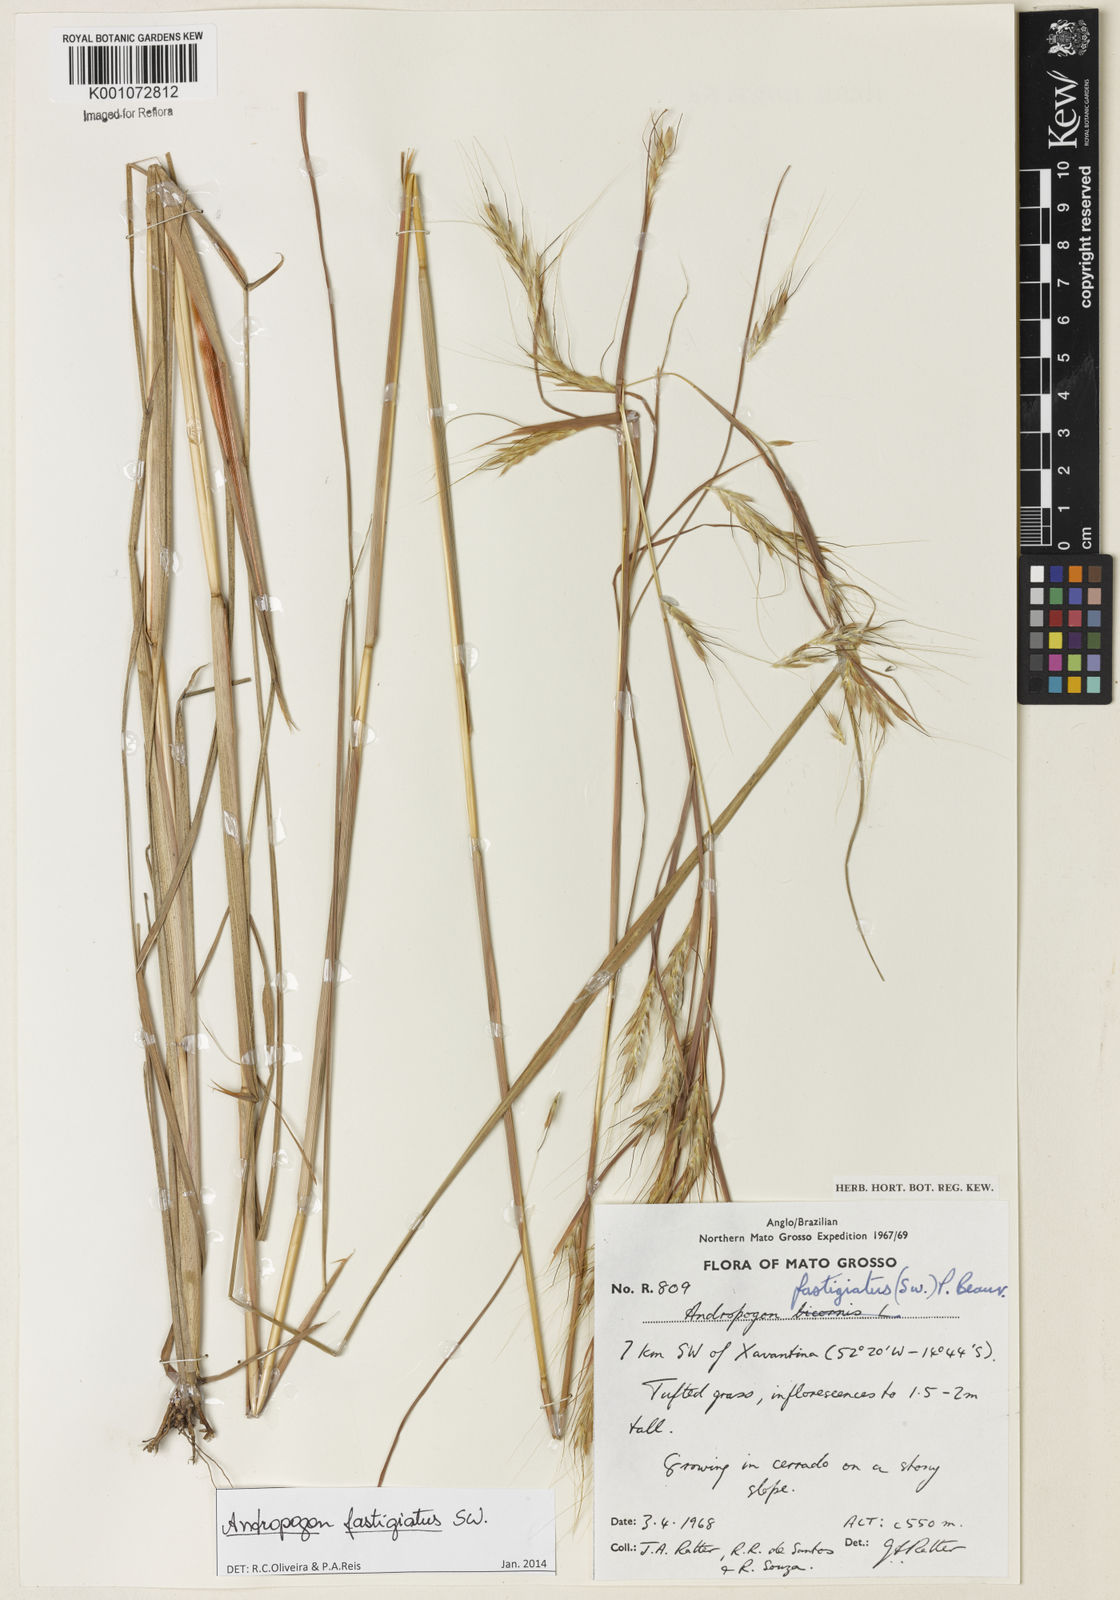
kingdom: Plantae
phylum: Tracheophyta
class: Liliopsida
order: Poales
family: Poaceae
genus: Diectomis
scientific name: Diectomis fastigiata
